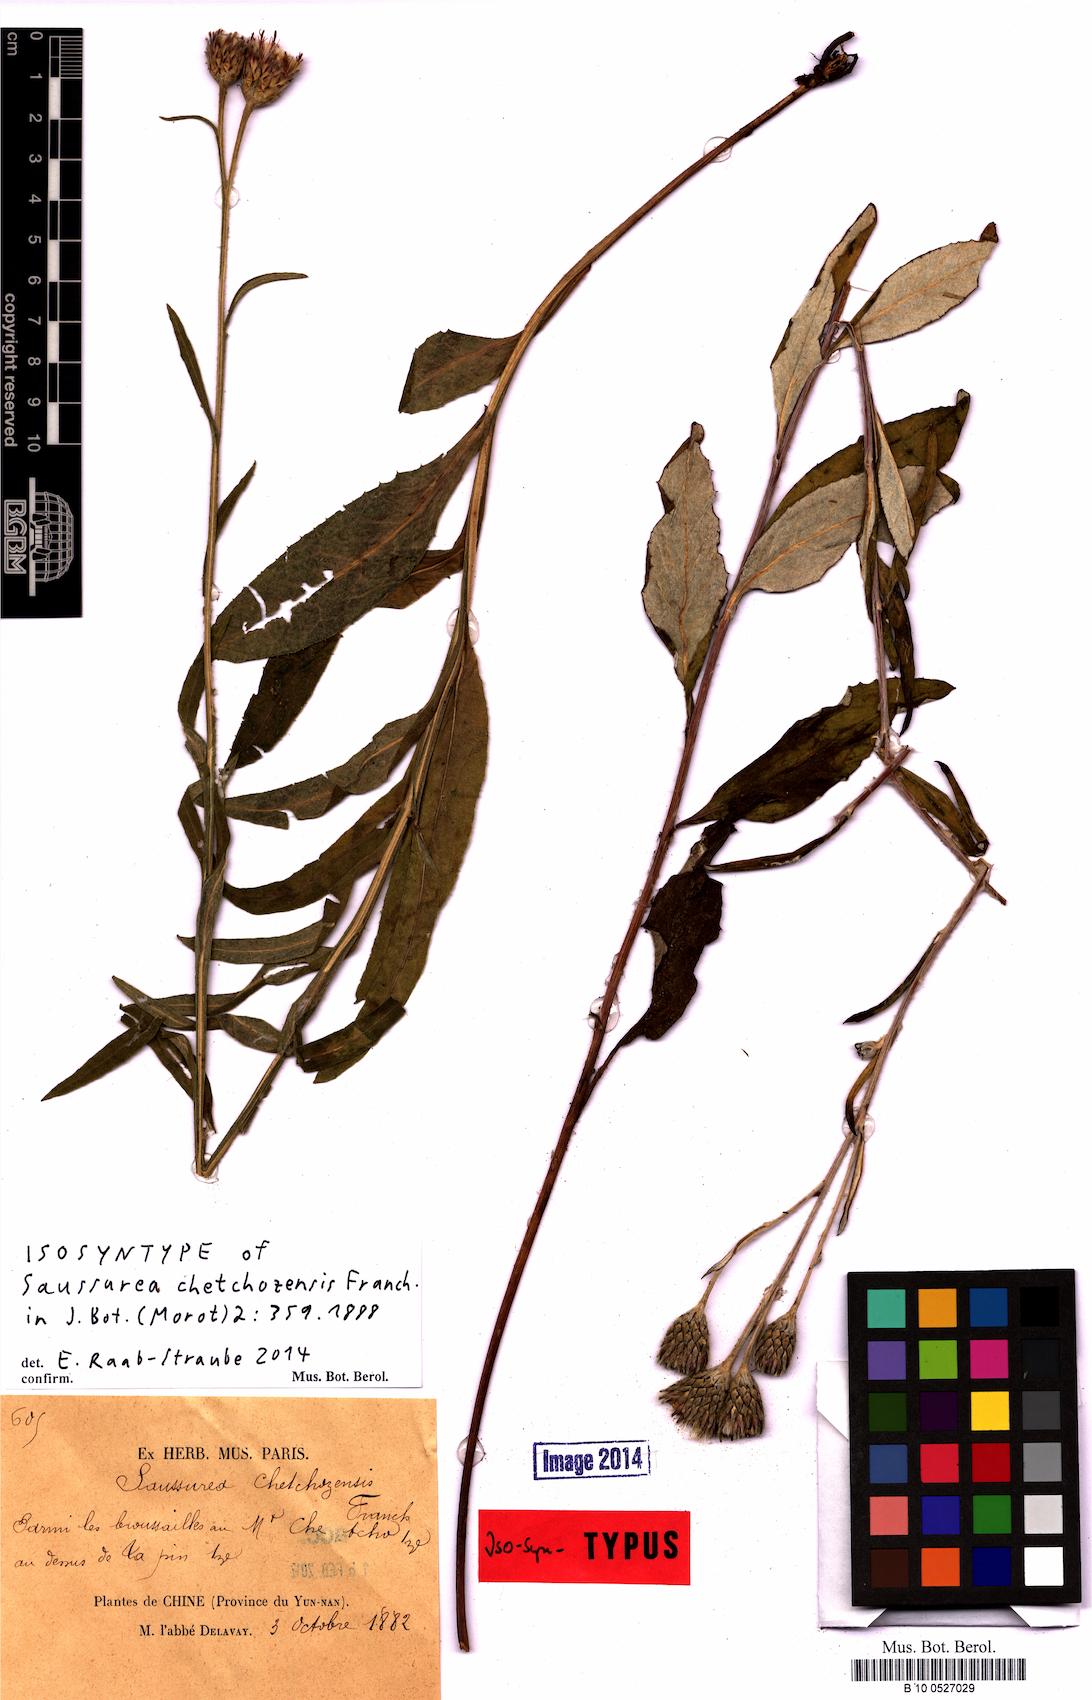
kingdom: Plantae
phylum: Tracheophyta
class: Magnoliopsida
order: Asterales
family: Asteraceae
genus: Saussurea
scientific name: Saussurea chetchozensis
